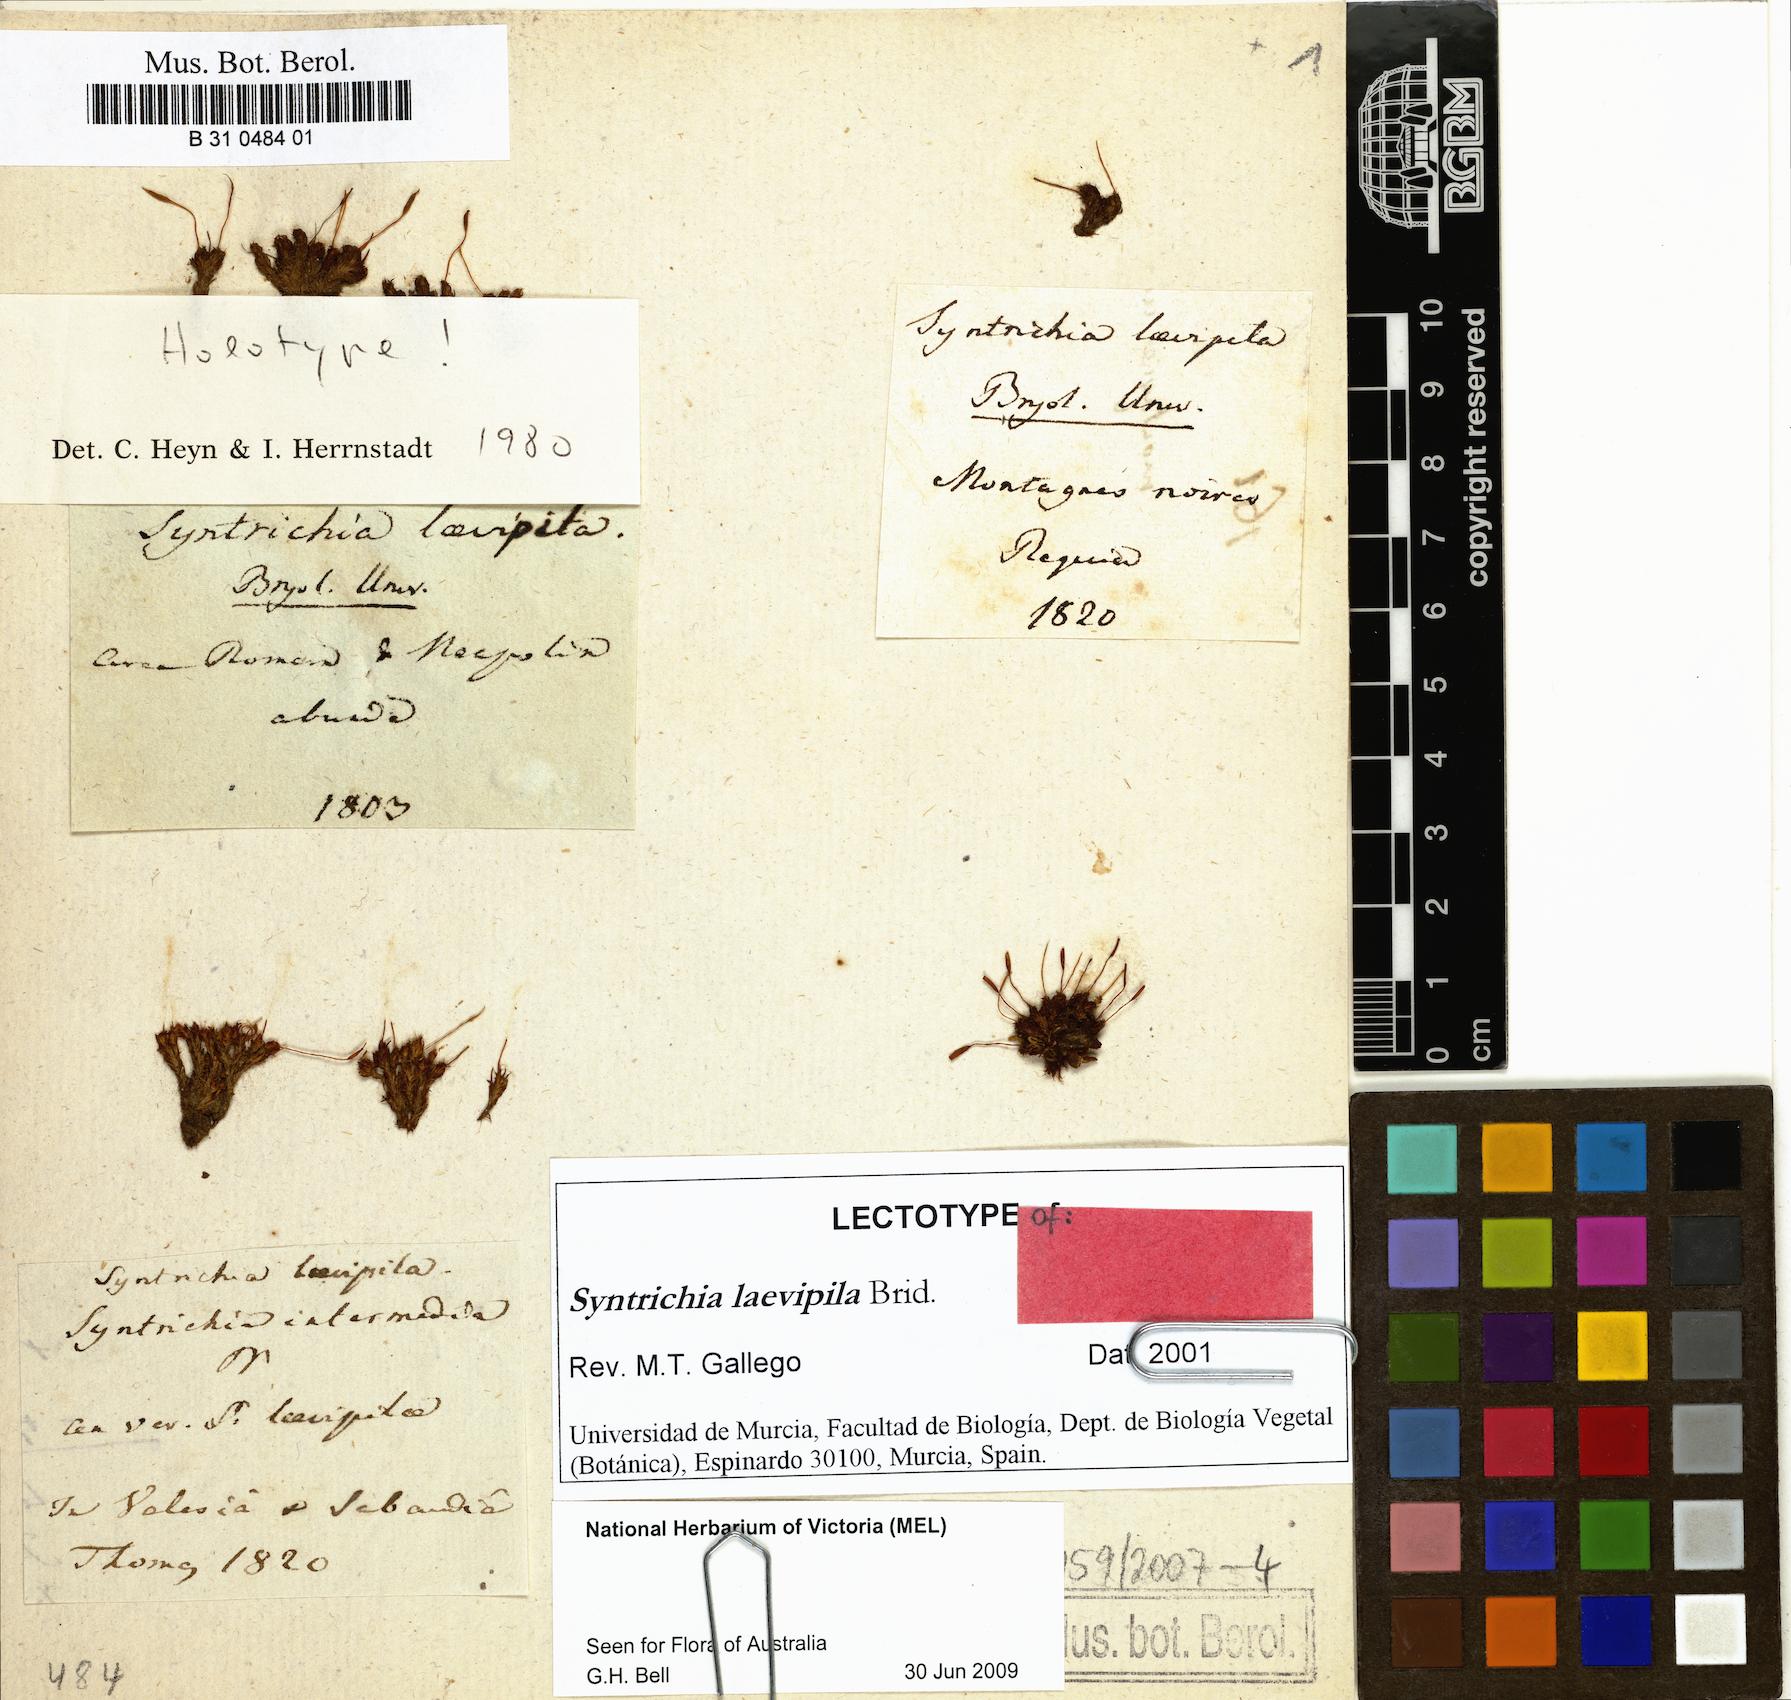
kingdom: Plantae
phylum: Bryophyta
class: Bryopsida
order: Pottiales
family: Pottiaceae
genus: Syntrichia
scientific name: Syntrichia laevipila
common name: Small hairy screw-moss
